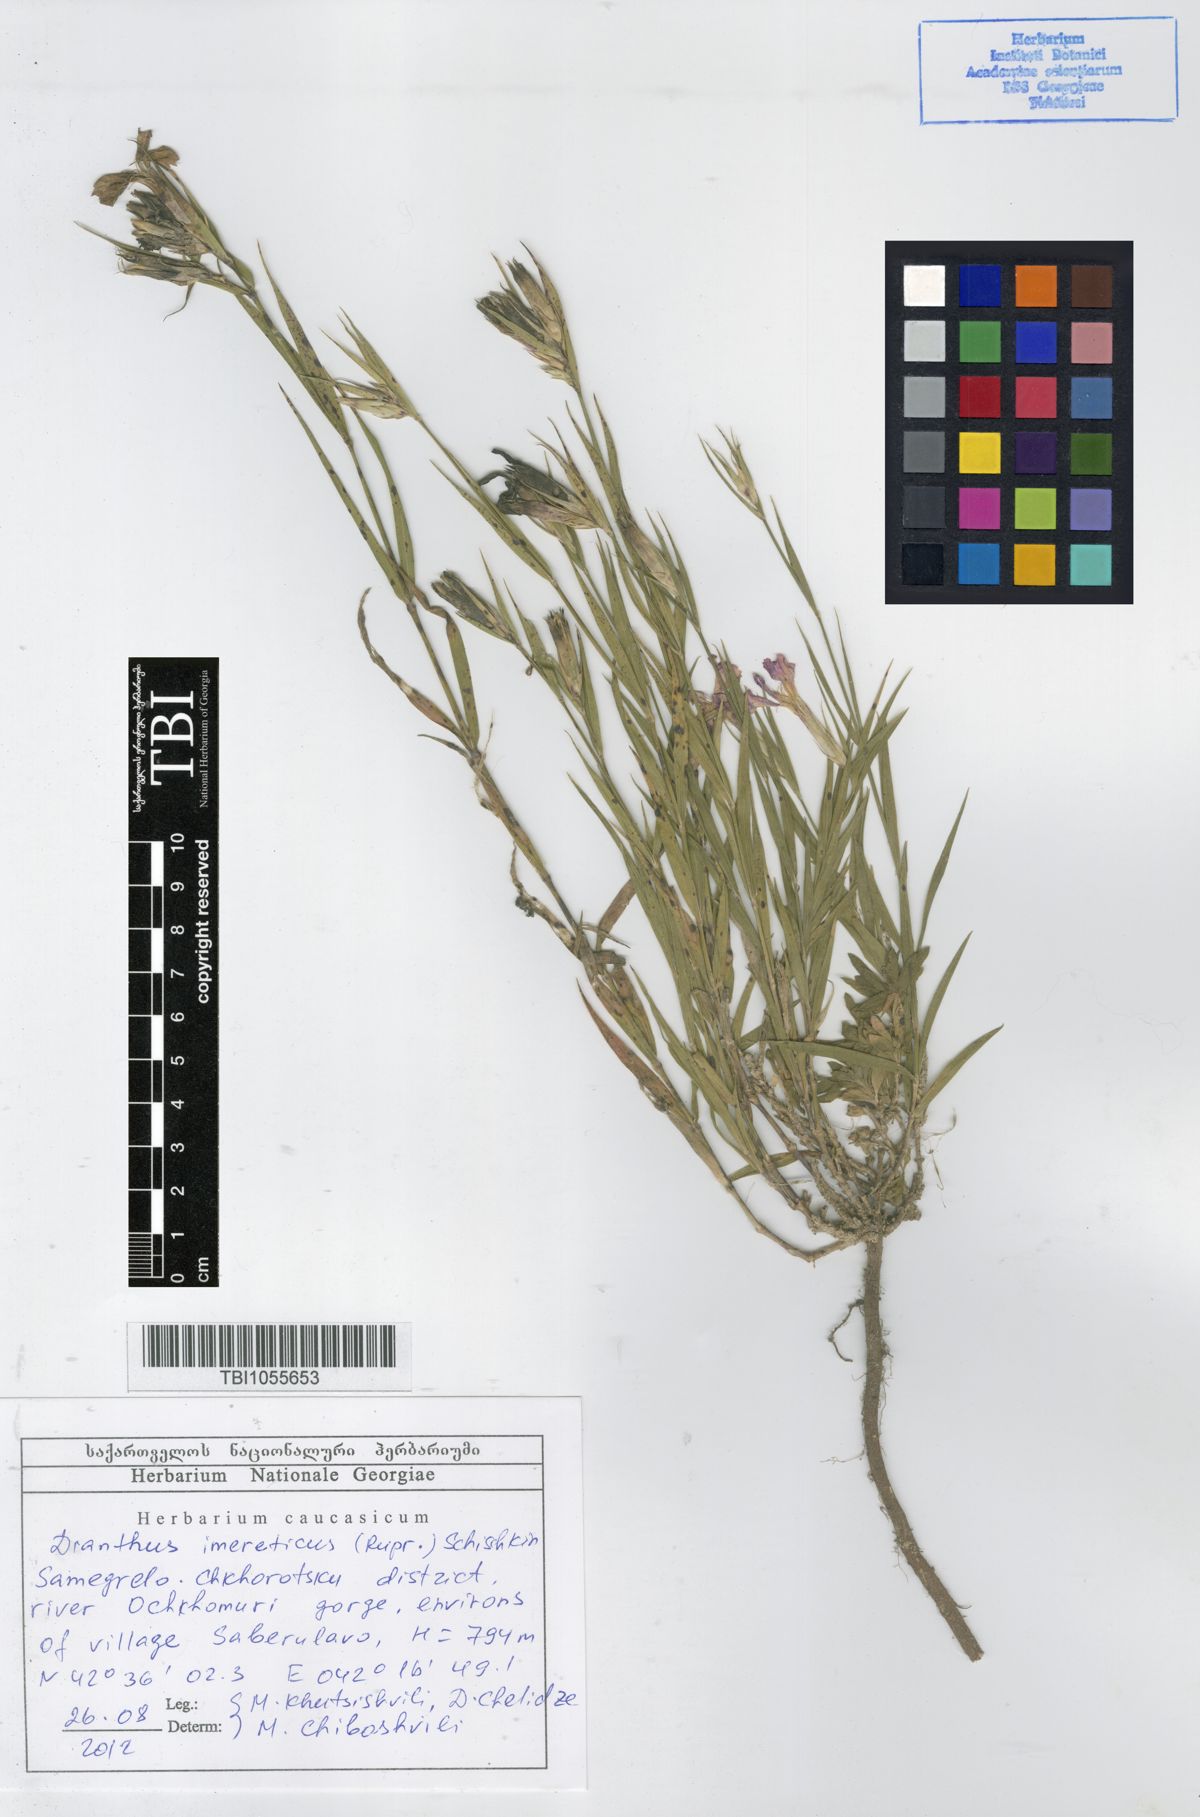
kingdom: Plantae
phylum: Tracheophyta
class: Magnoliopsida
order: Caryophyllales
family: Caryophyllaceae
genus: Dianthus
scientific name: Dianthus imereticus
